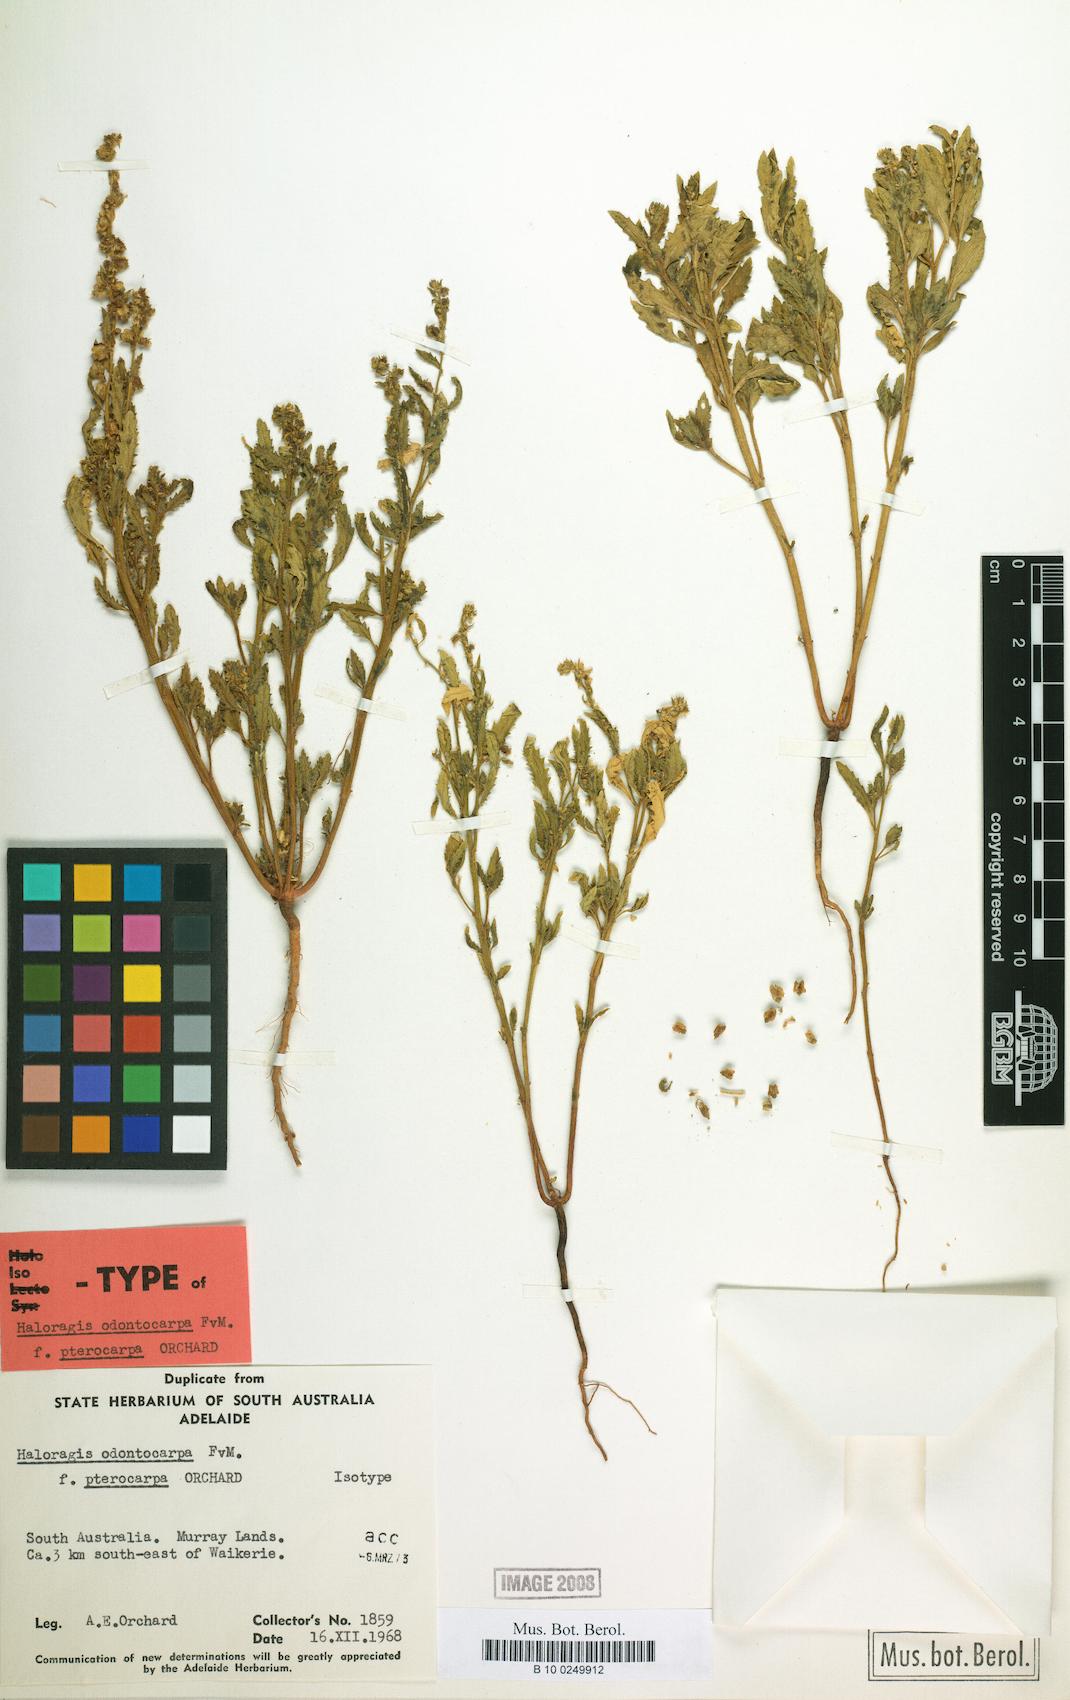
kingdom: Plantae
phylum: Tracheophyta
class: Magnoliopsida
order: Saxifragales
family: Haloragaceae
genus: Haloragis
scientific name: Haloragis odontocarpa
